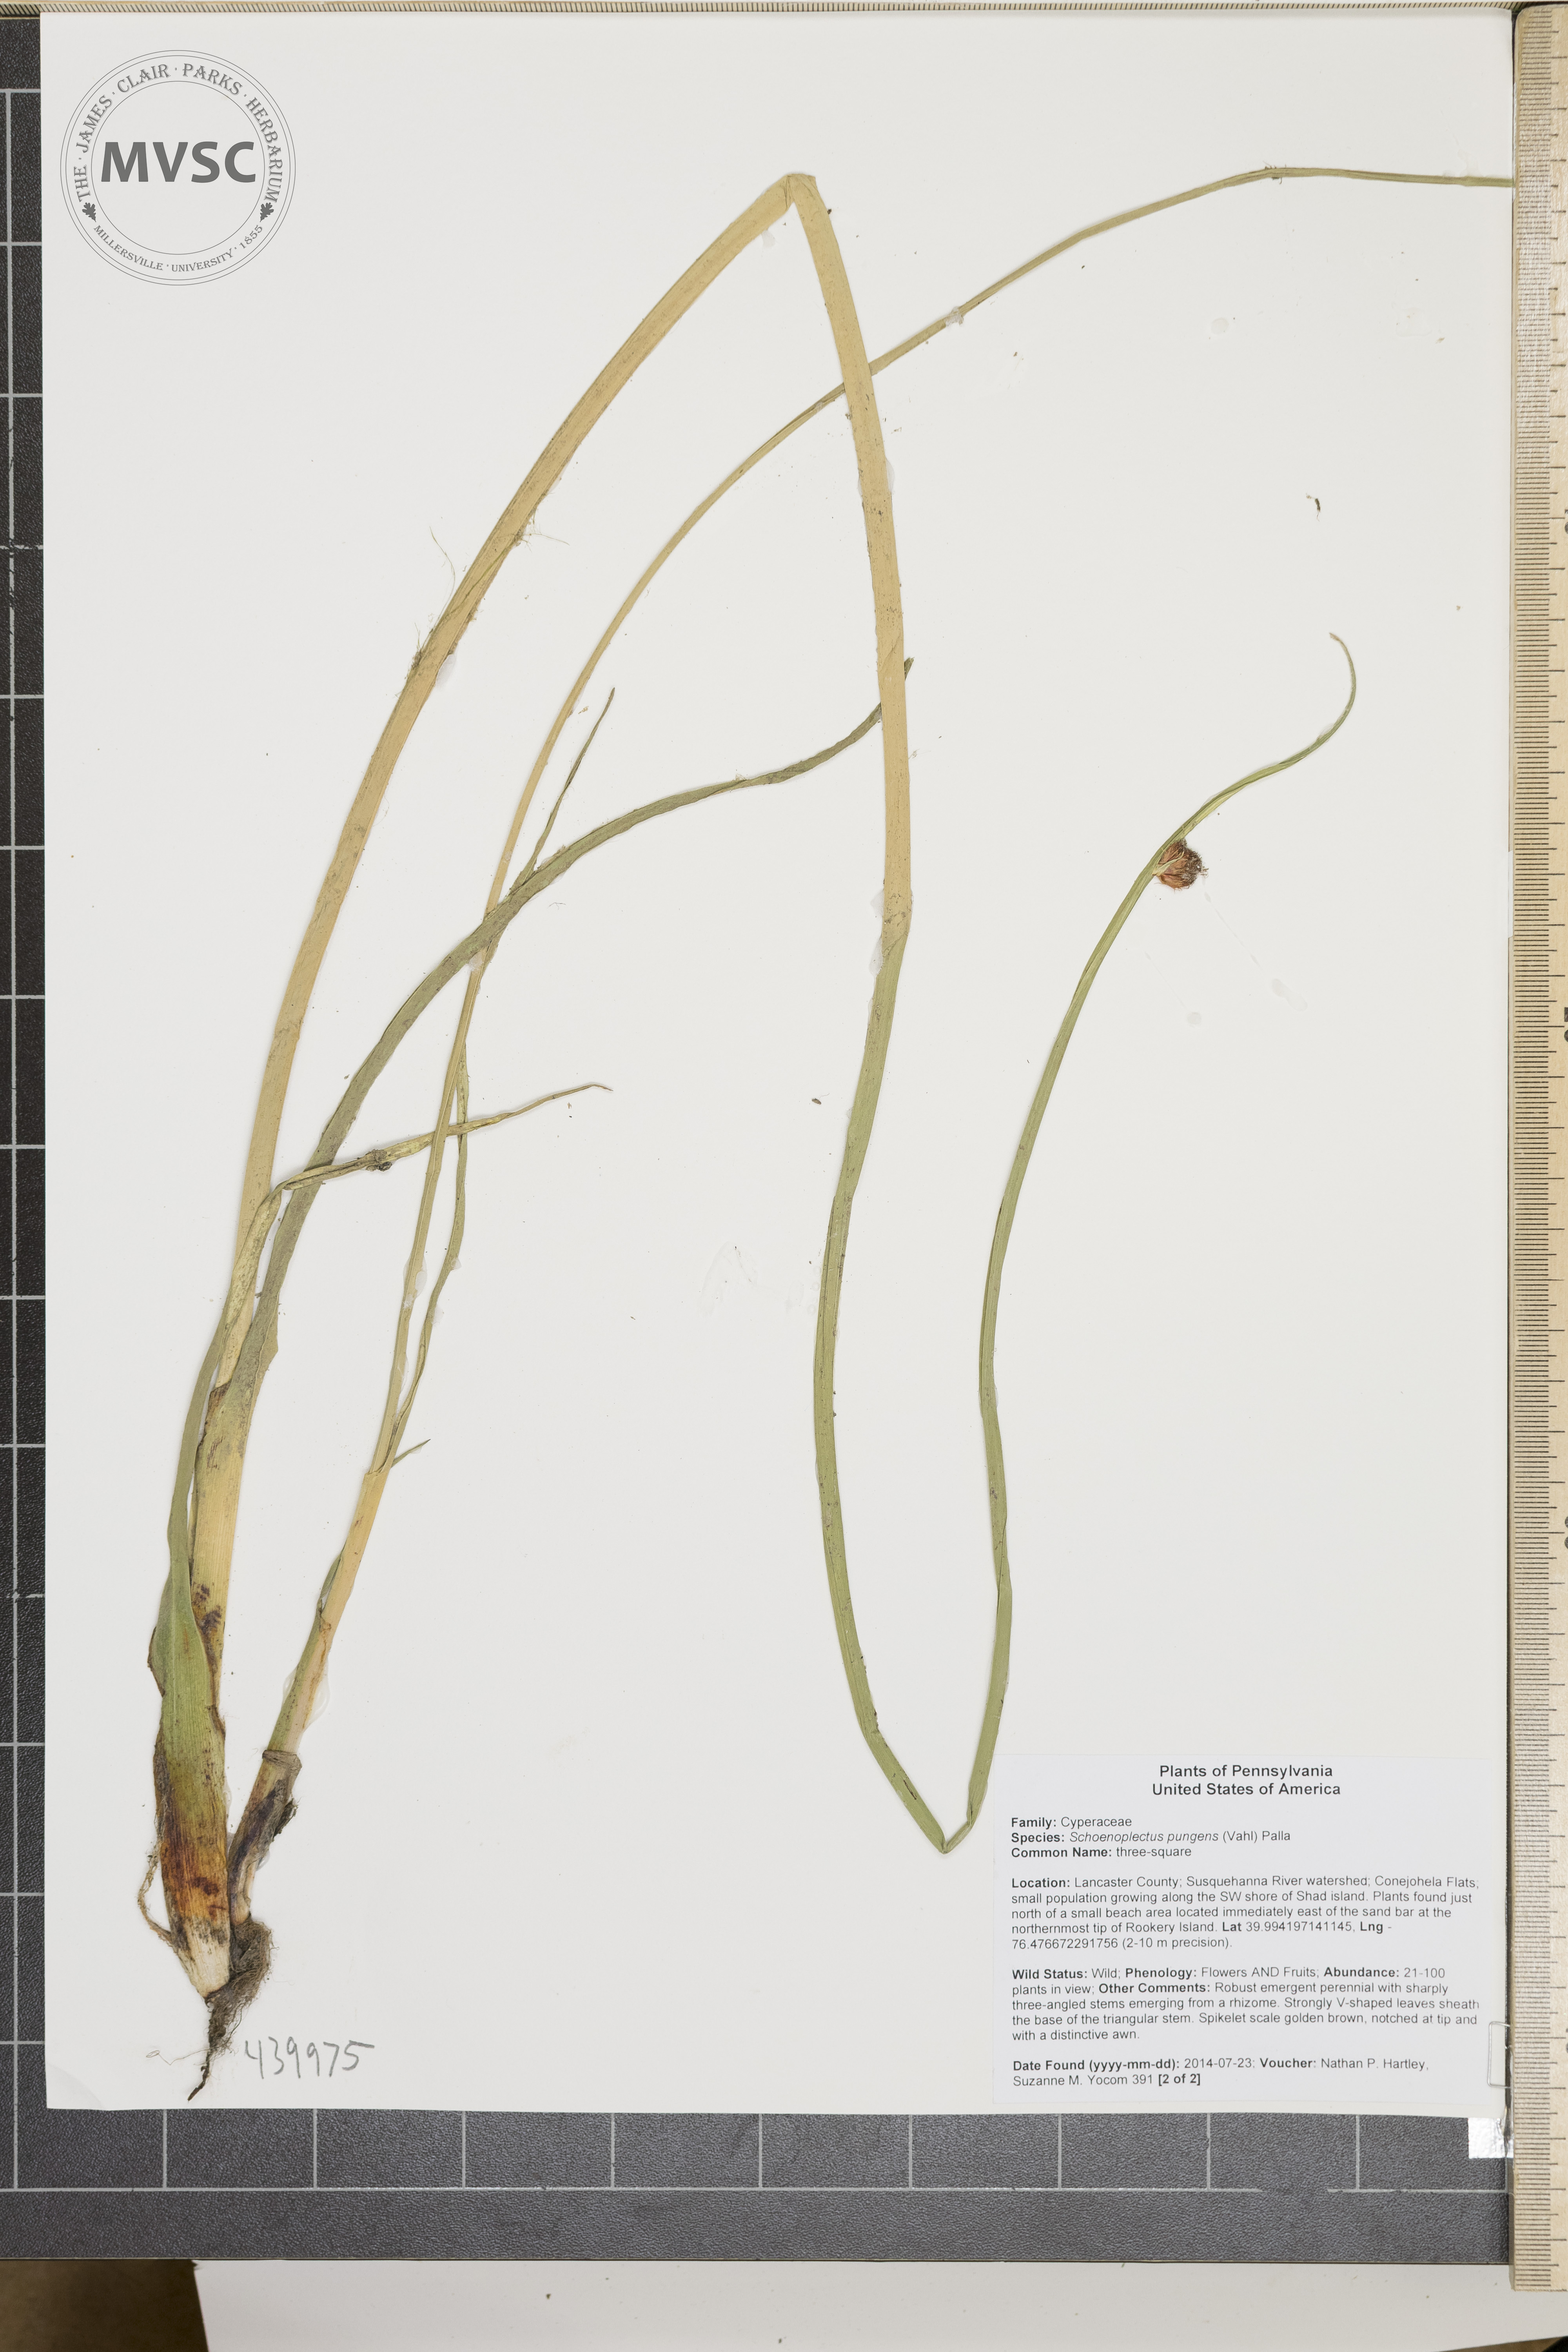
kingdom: Plantae
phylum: Tracheophyta
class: Liliopsida
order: Poales
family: Cyperaceae
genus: Schoenoplectus
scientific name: Schoenoplectus pungens
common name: Sharp club-rush
